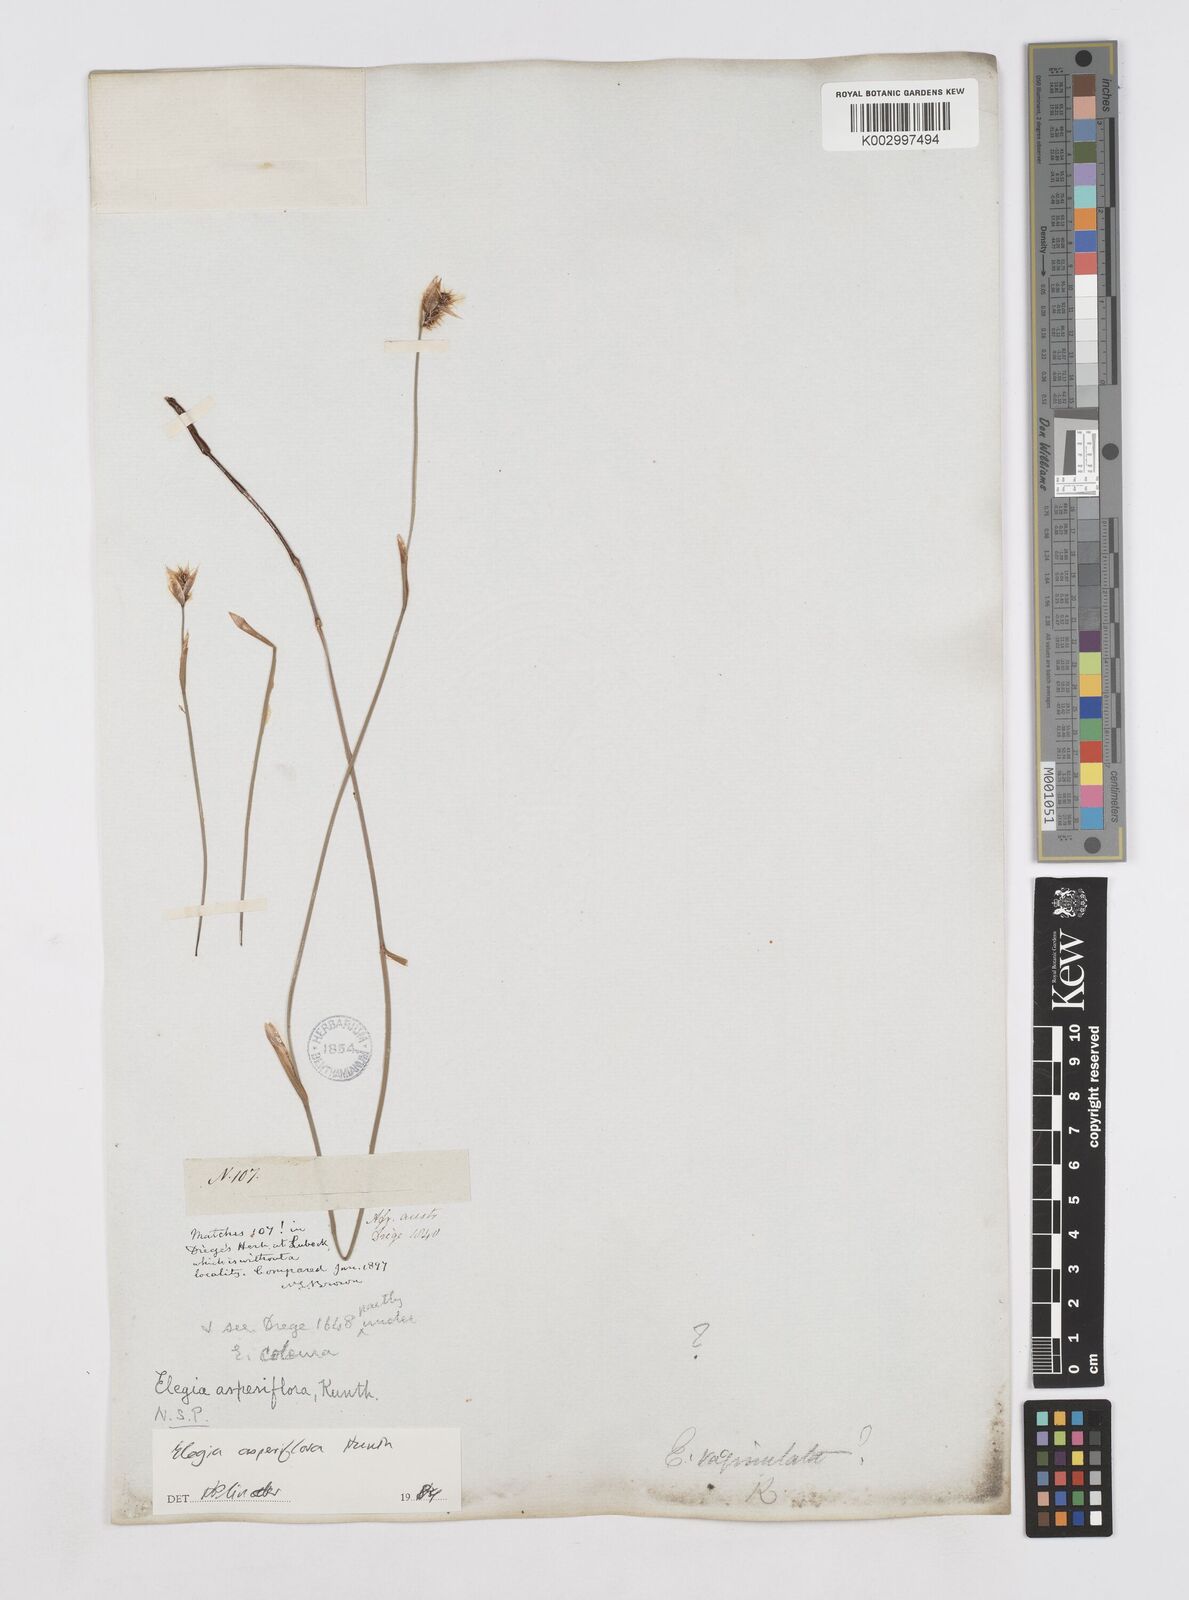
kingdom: Plantae
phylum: Tracheophyta
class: Liliopsida
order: Poales
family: Restionaceae
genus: Elegia
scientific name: Elegia asperiflora
